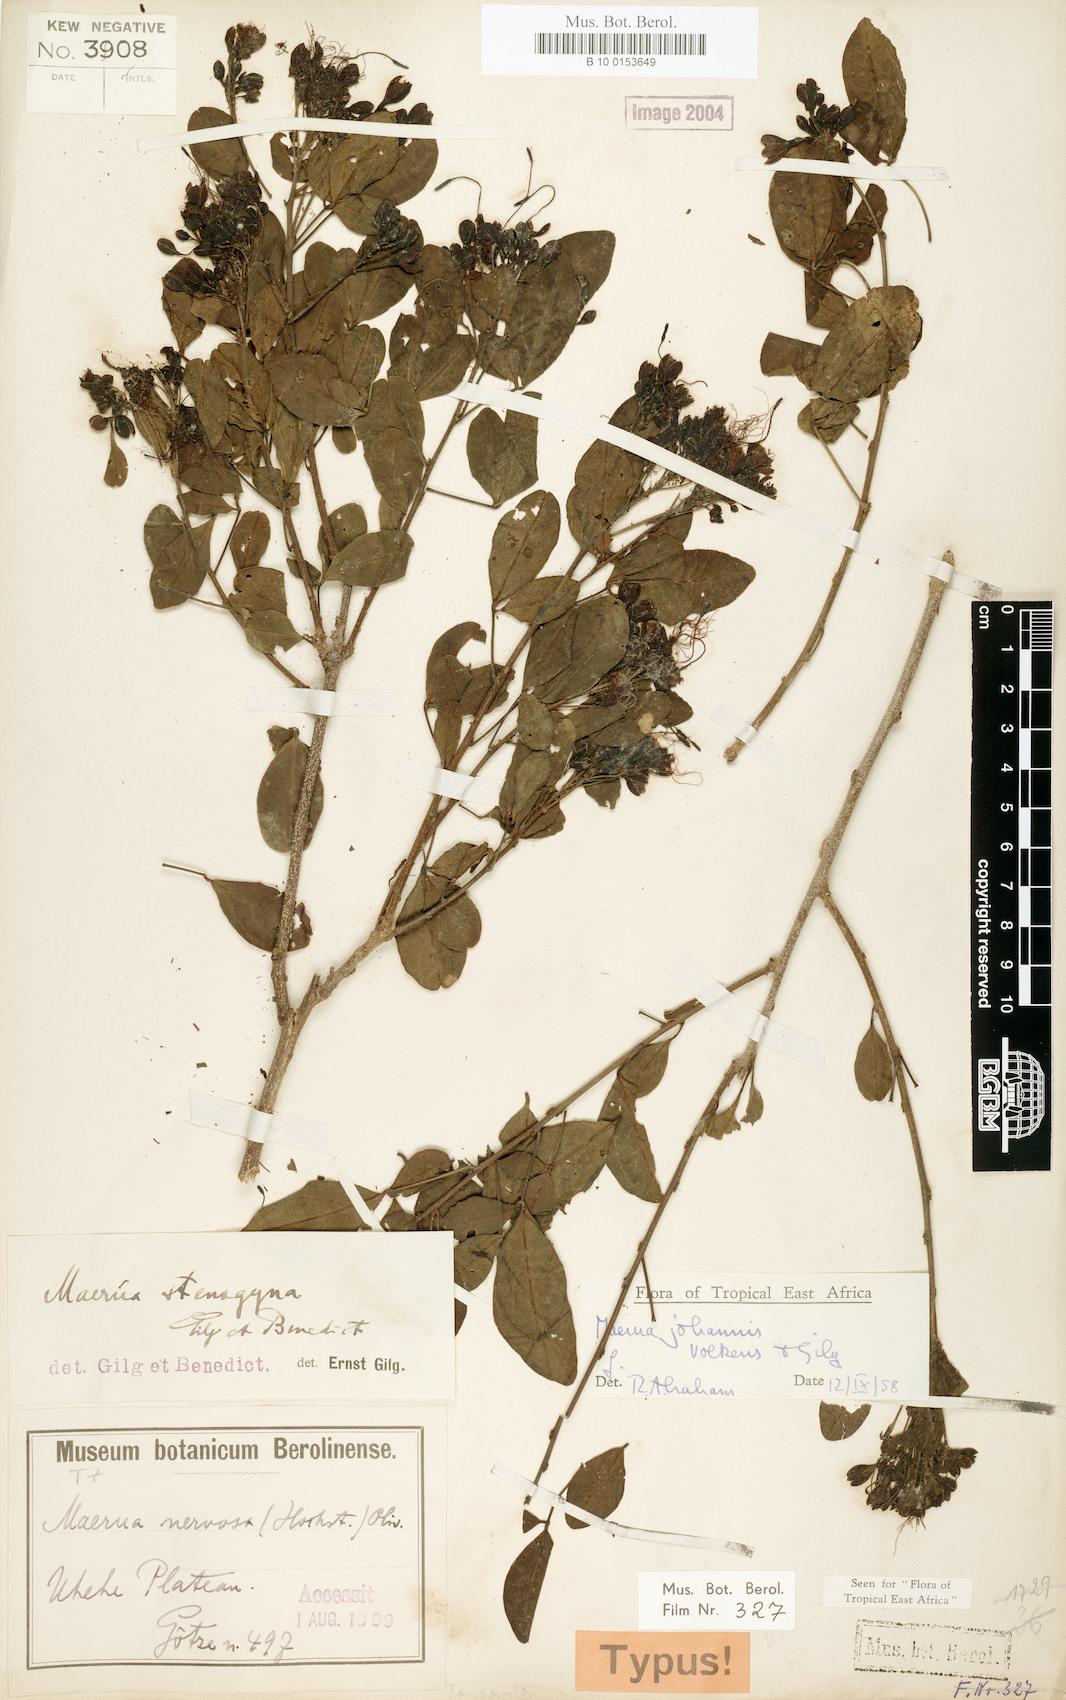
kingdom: Plantae
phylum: Tracheophyta
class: Magnoliopsida
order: Brassicales
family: Capparaceae
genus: Maerua
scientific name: Maerua triphylla
